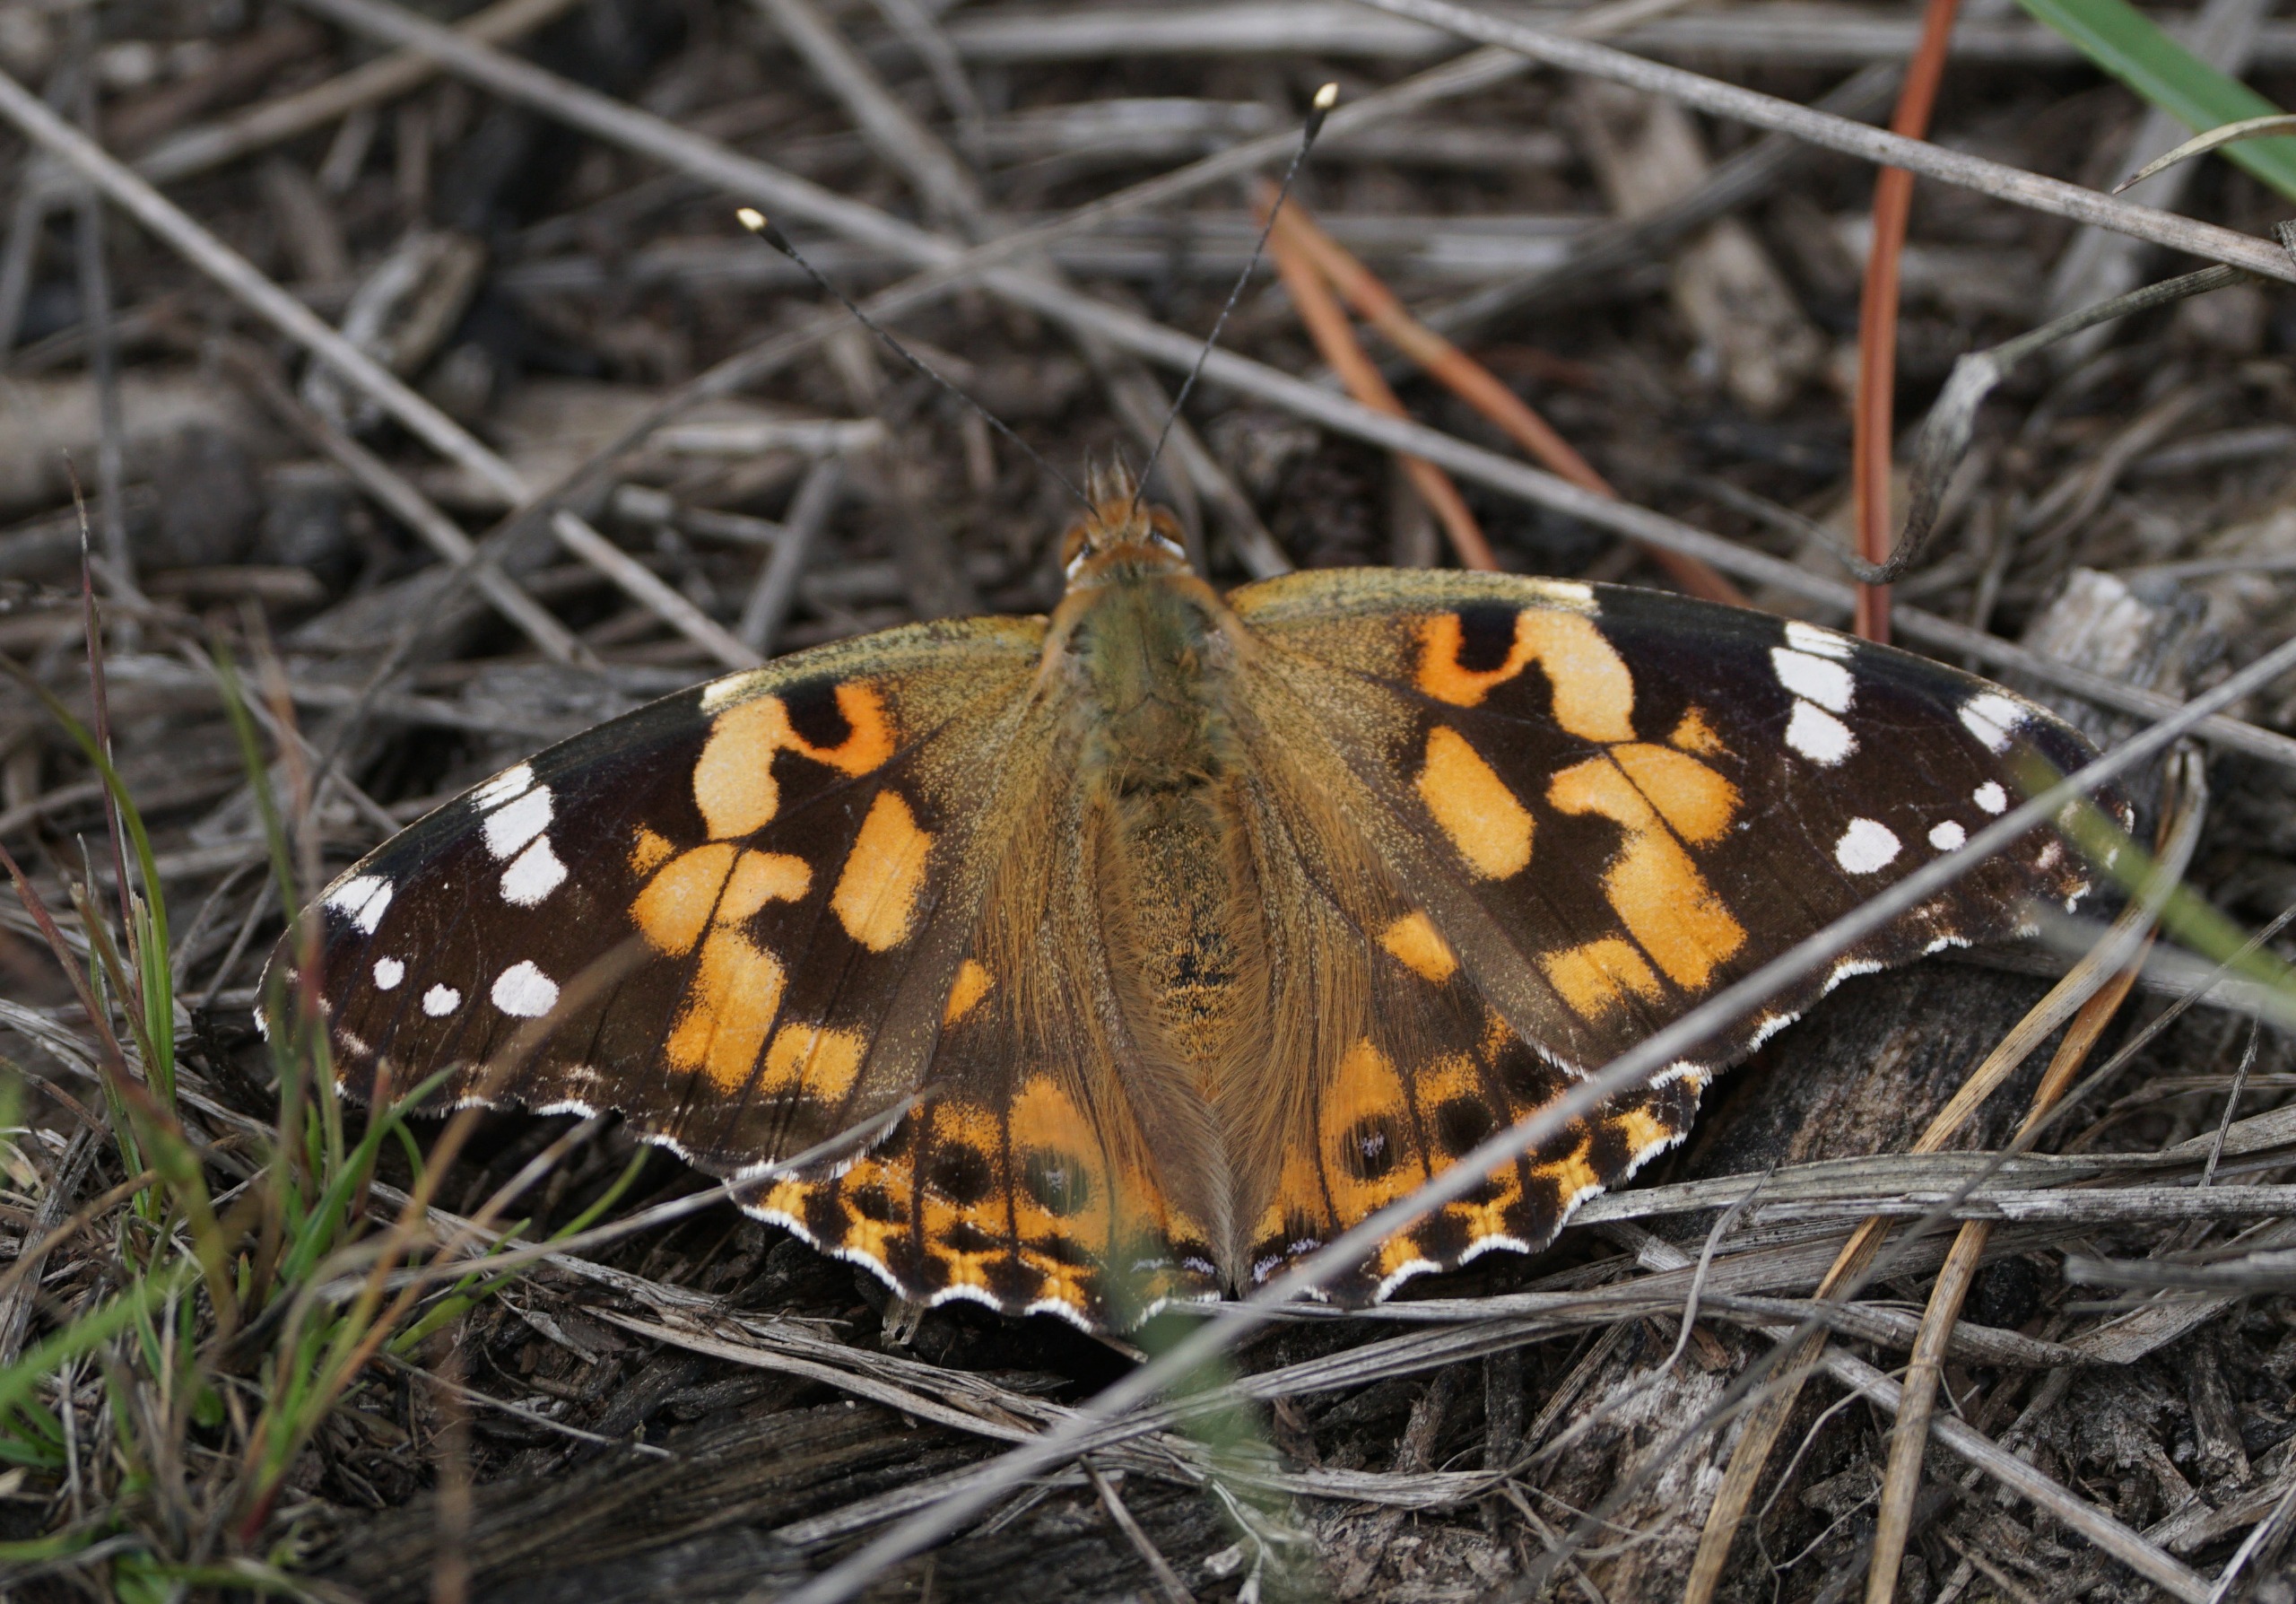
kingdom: Animalia
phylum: Arthropoda
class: Insecta
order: Lepidoptera
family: Nymphalidae
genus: Vanessa
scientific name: Vanessa cardui
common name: Tidselsommerfugl
